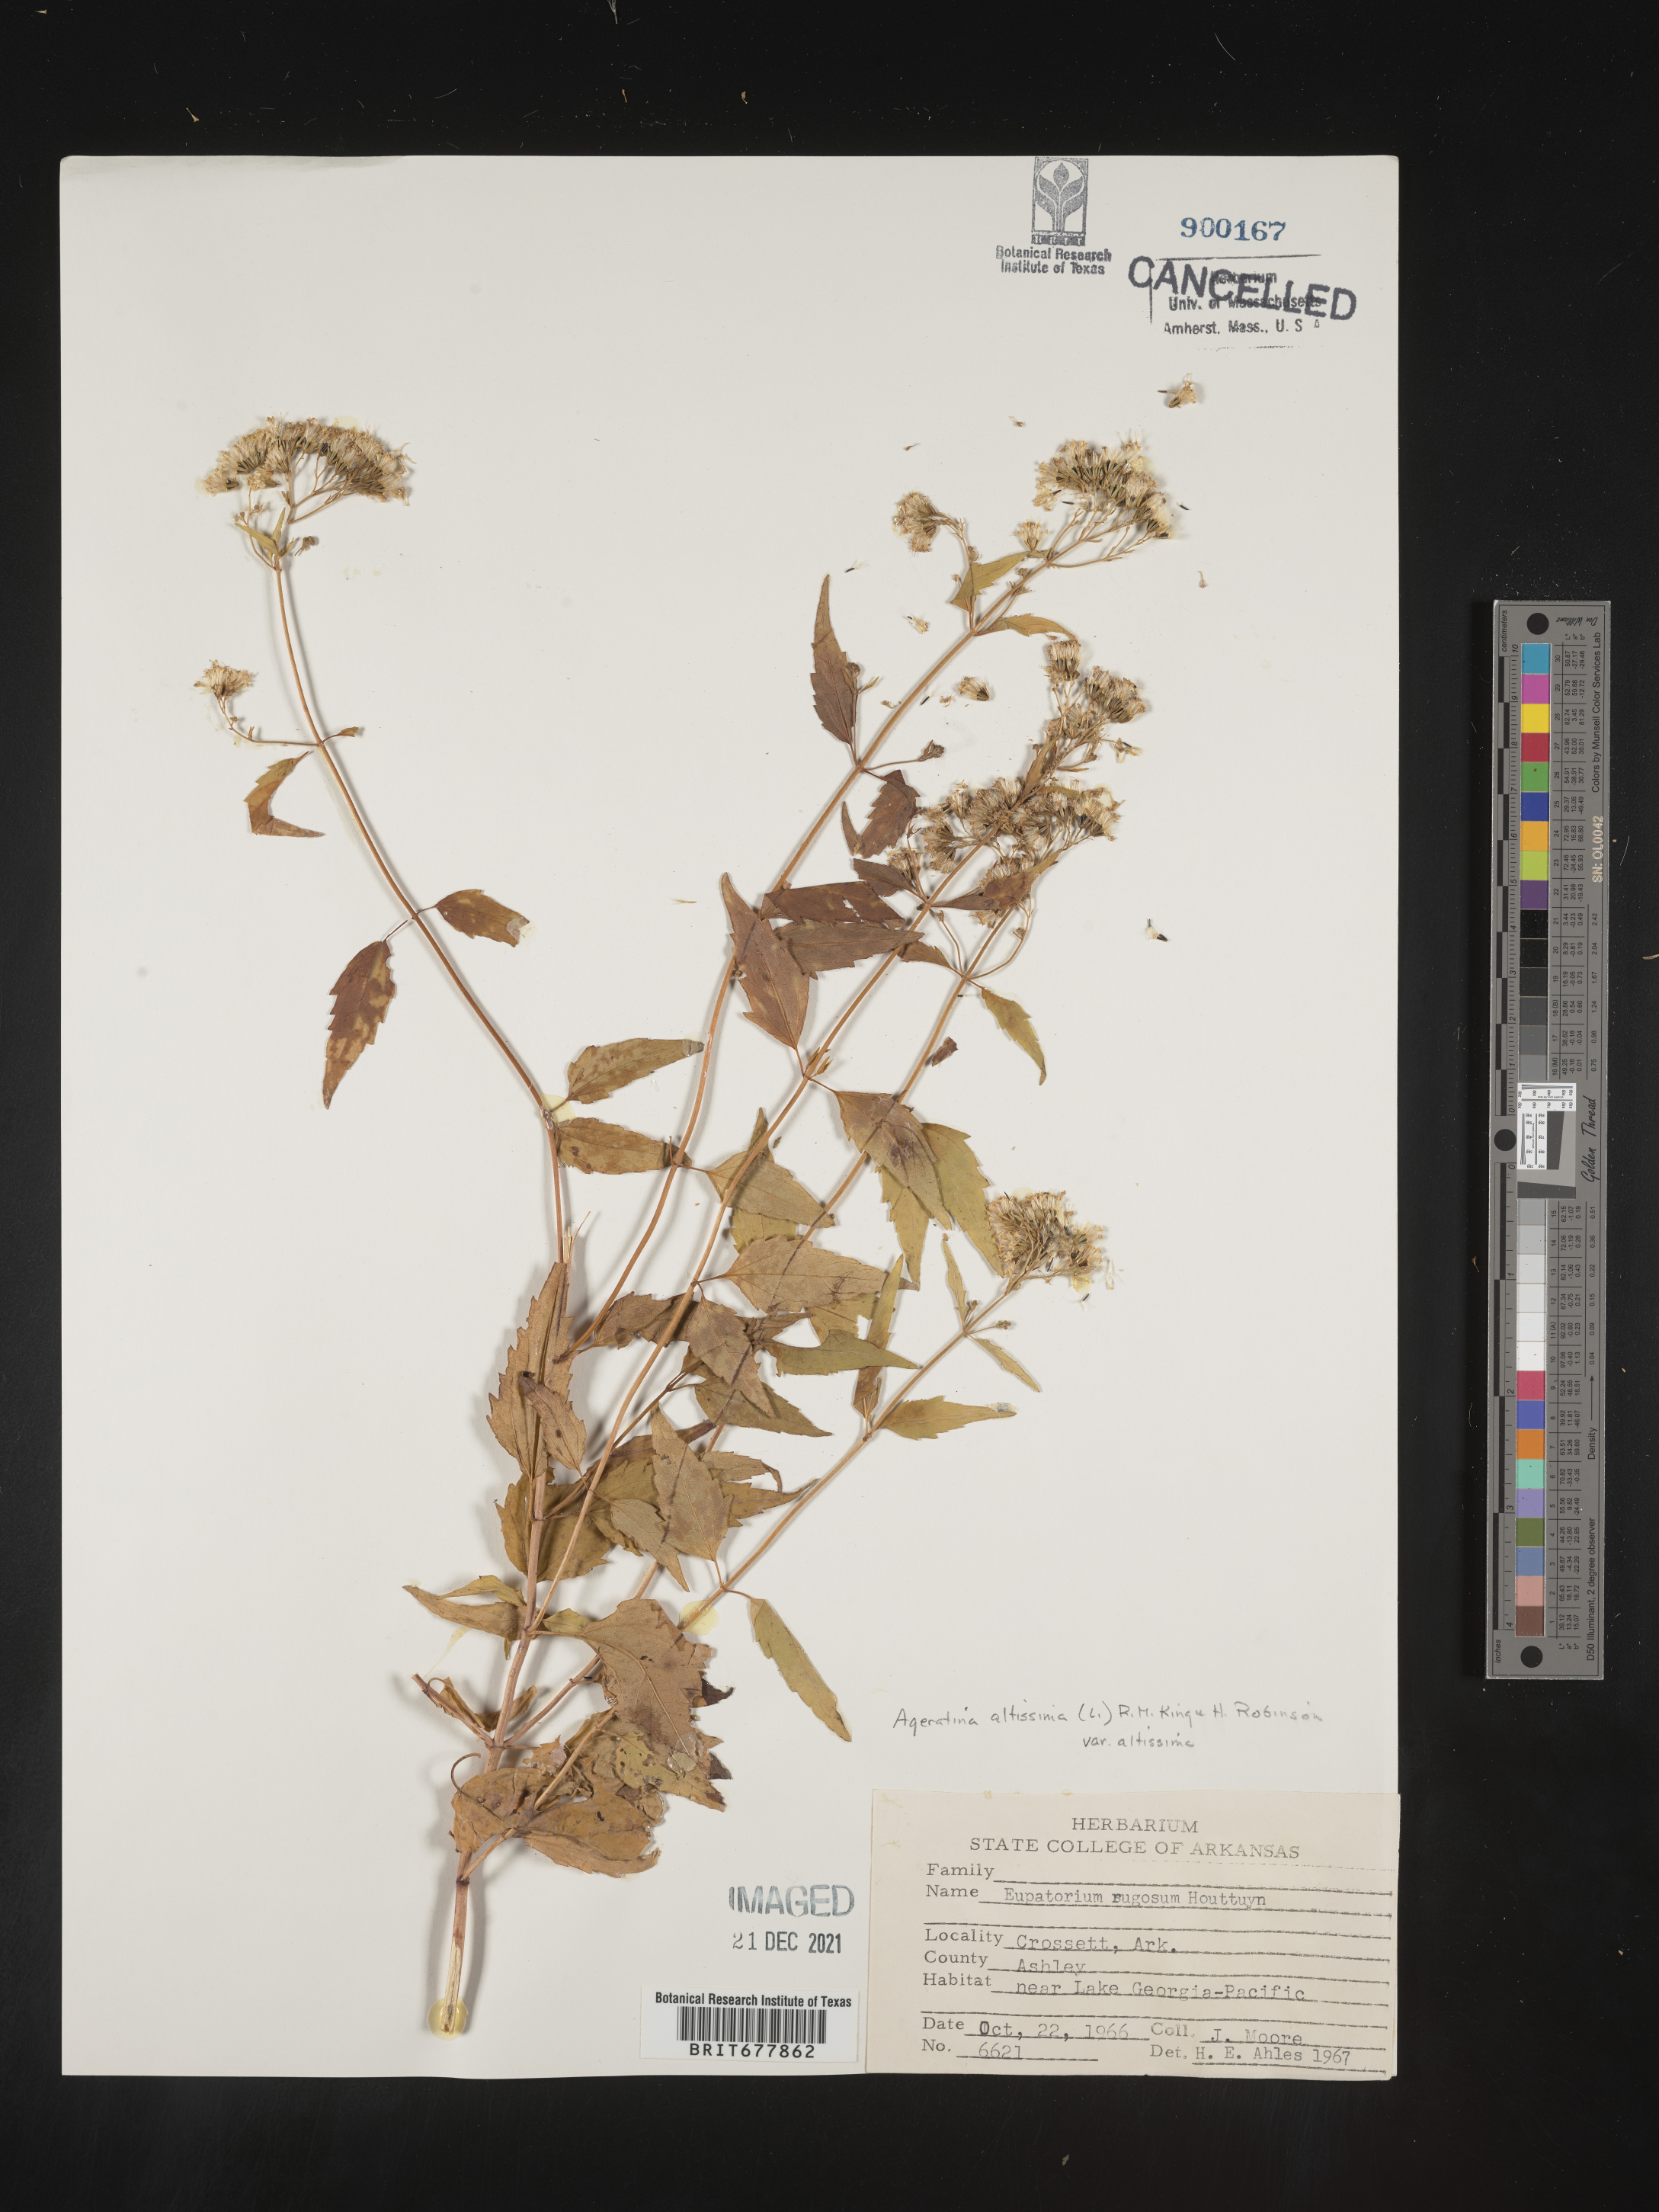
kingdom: Plantae
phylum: Tracheophyta
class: Magnoliopsida
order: Asterales
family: Asteraceae
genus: Ageratina
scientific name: Ageratina altissima
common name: White snakeroot
